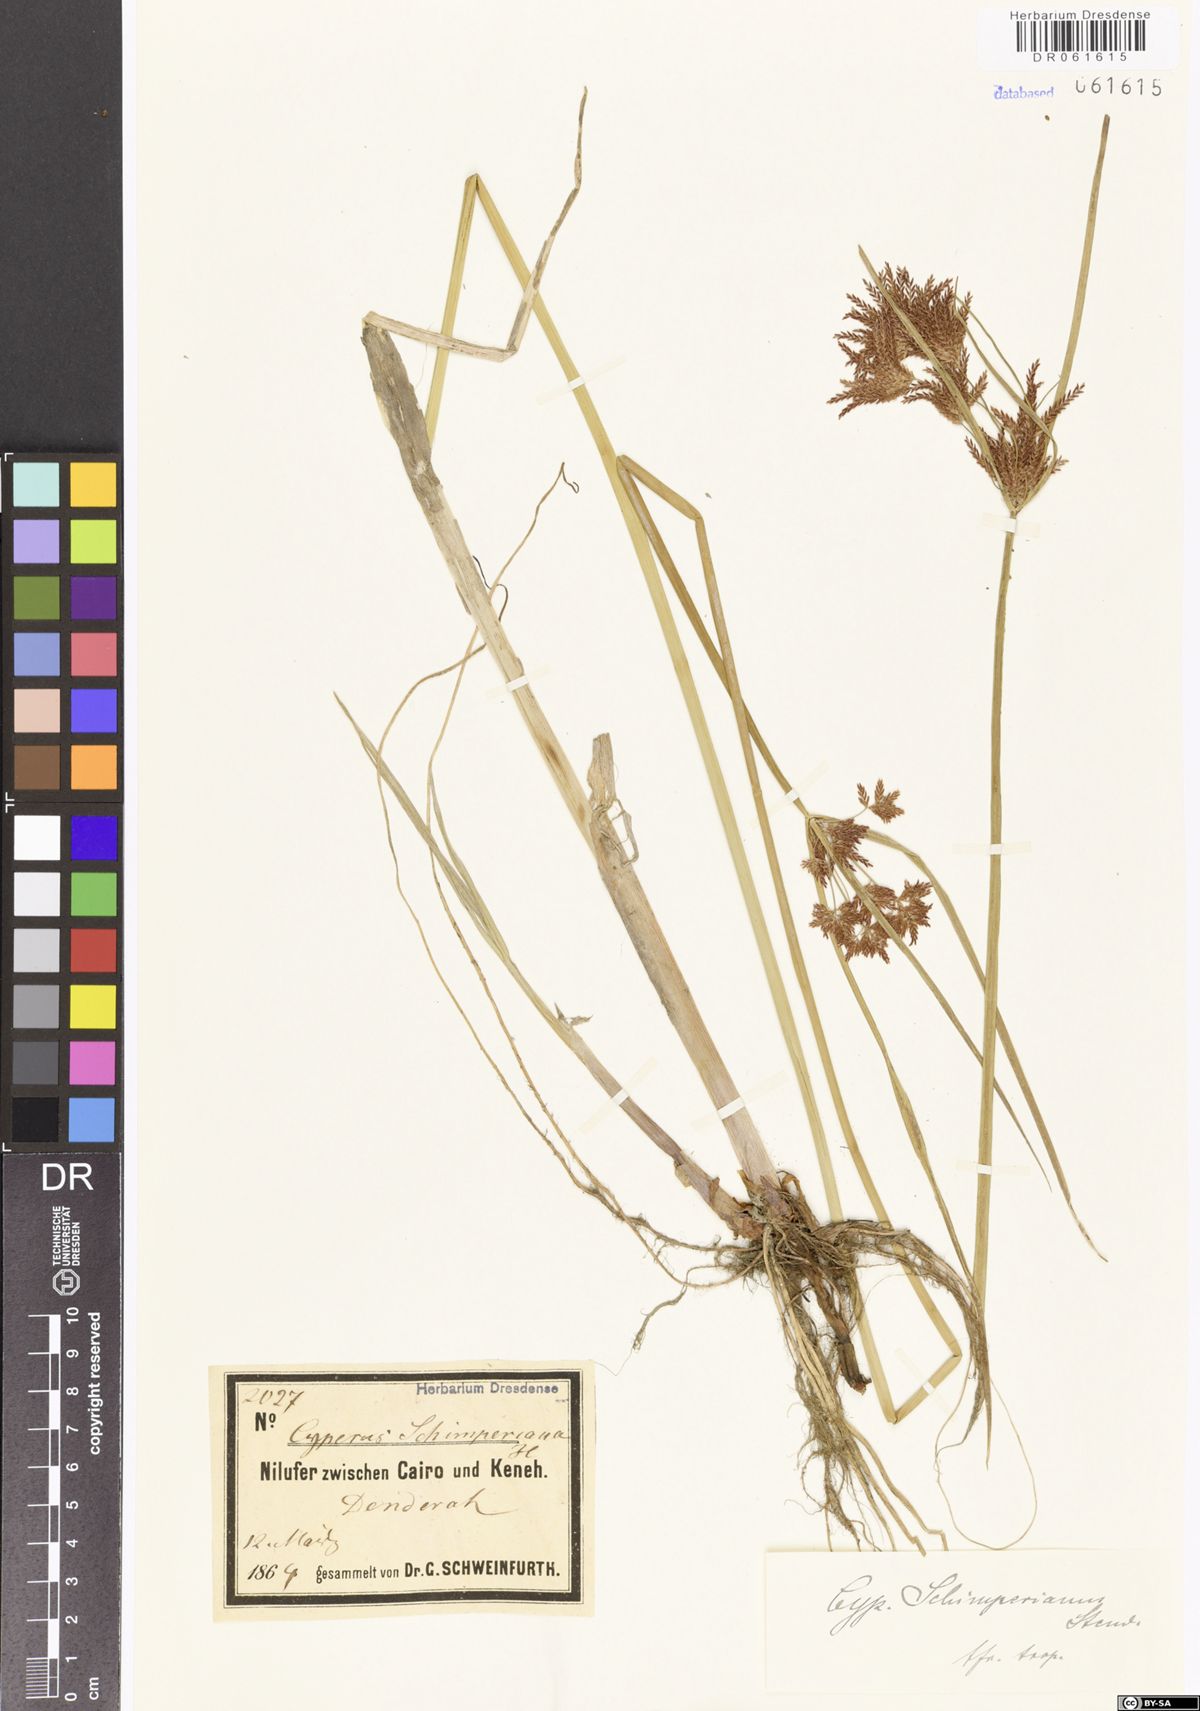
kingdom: Plantae
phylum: Tracheophyta
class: Liliopsida
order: Poales
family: Cyperaceae
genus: Cyperus
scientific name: Cyperus schimperianus
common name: Schimper flatsedge
